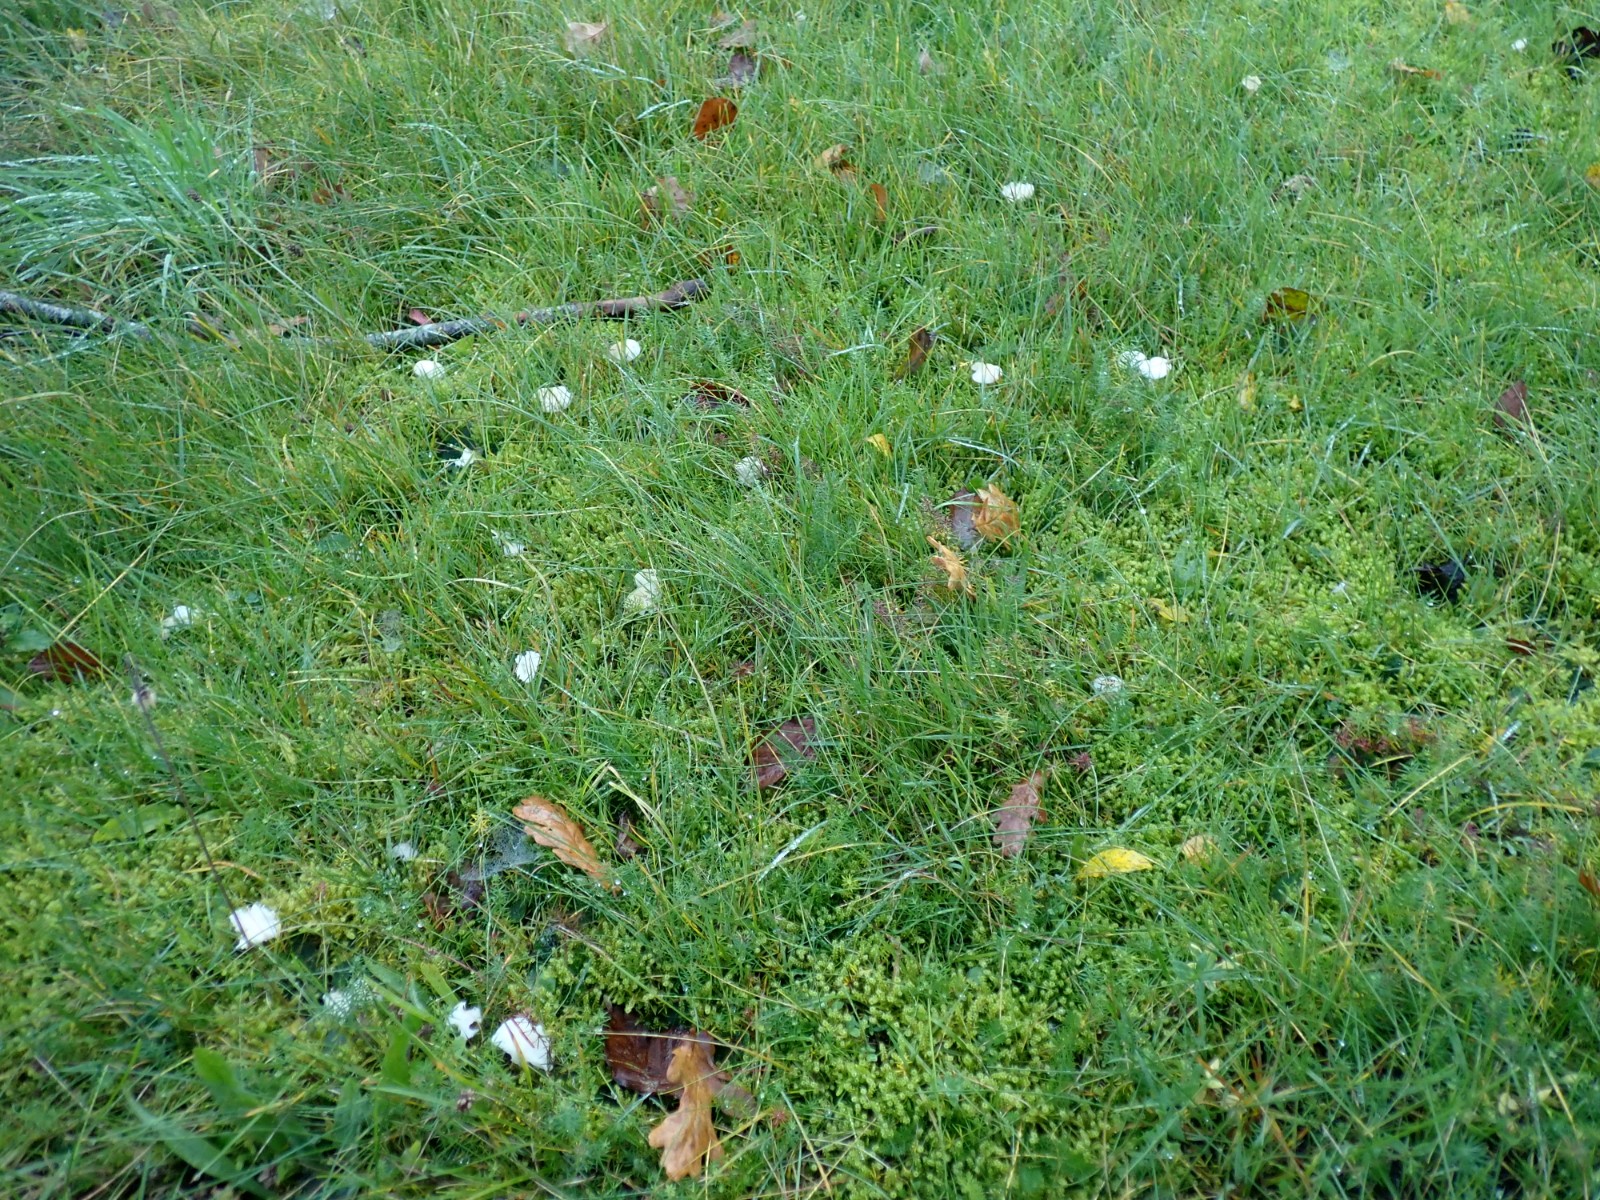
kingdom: Fungi
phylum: Basidiomycota
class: Agaricomycetes
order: Agaricales
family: Hygrophoraceae
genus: Cuphophyllus
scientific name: Cuphophyllus virgineus
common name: snehvid vokshat
